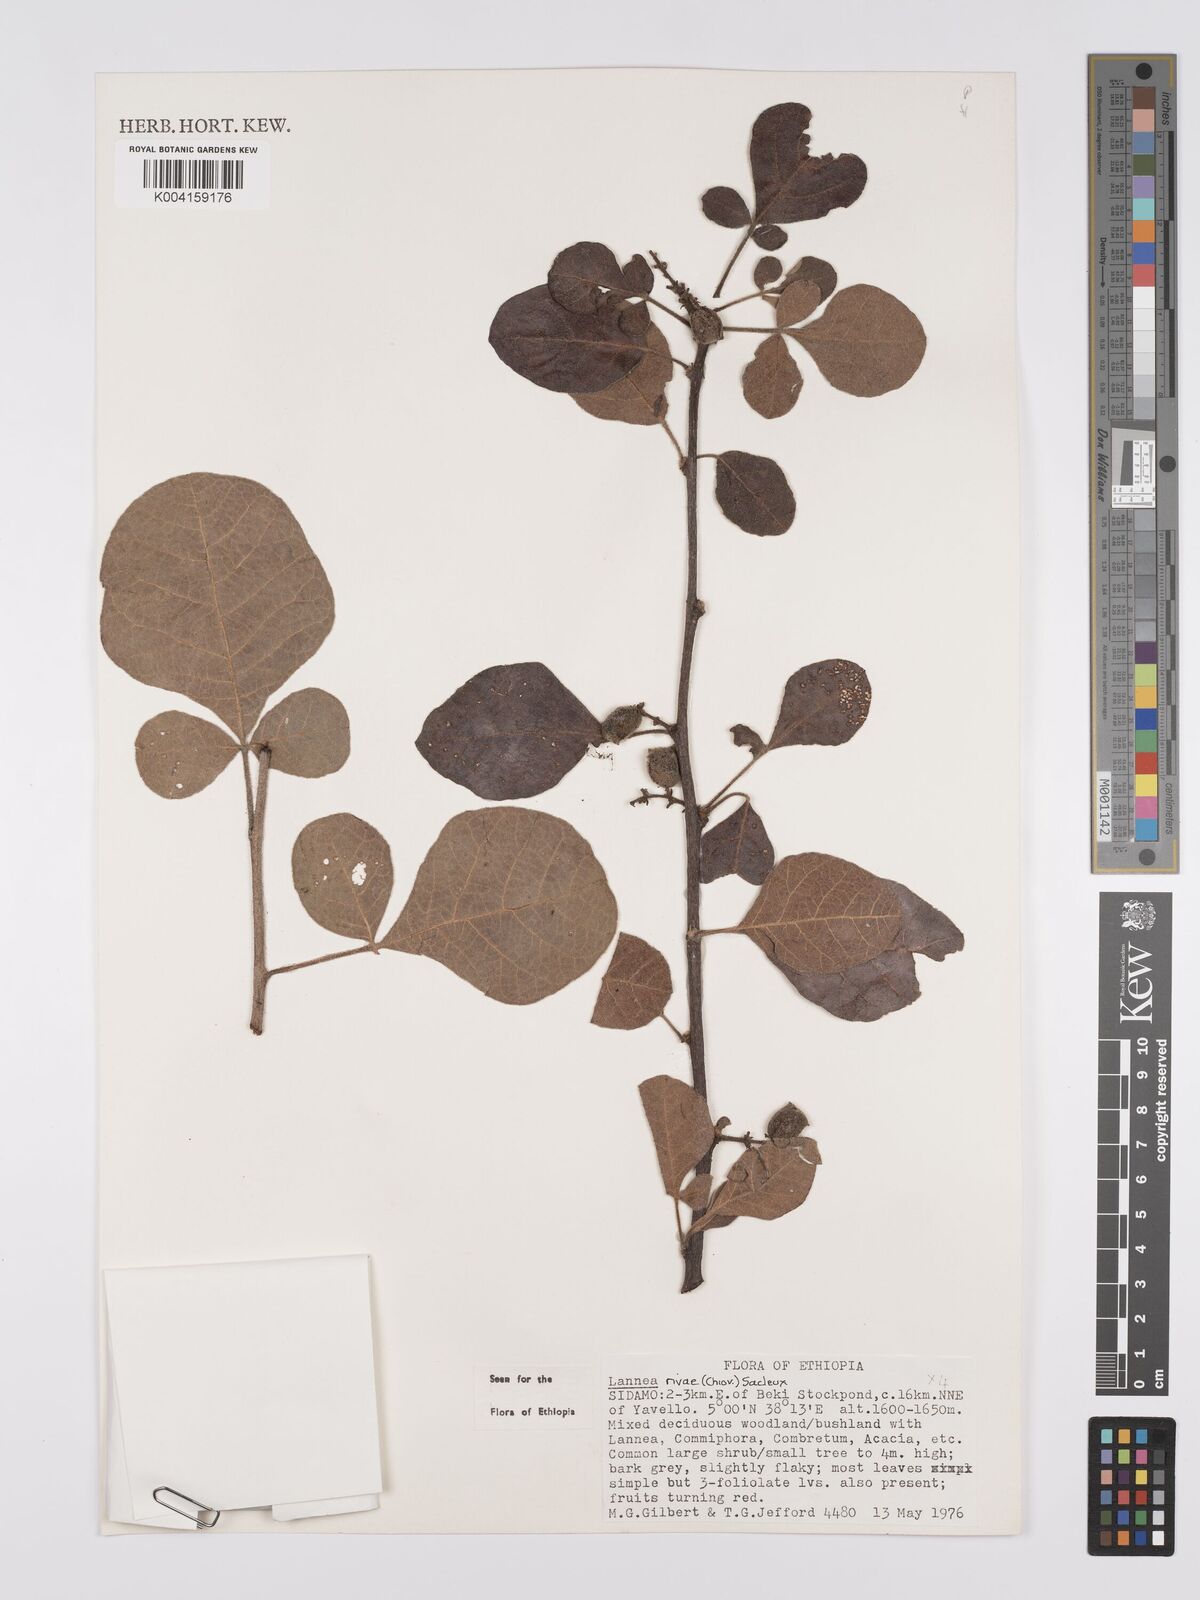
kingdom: Plantae
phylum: Tracheophyta
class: Magnoliopsida
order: Sapindales
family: Anacardiaceae
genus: Lannea
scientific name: Lannea rivae
